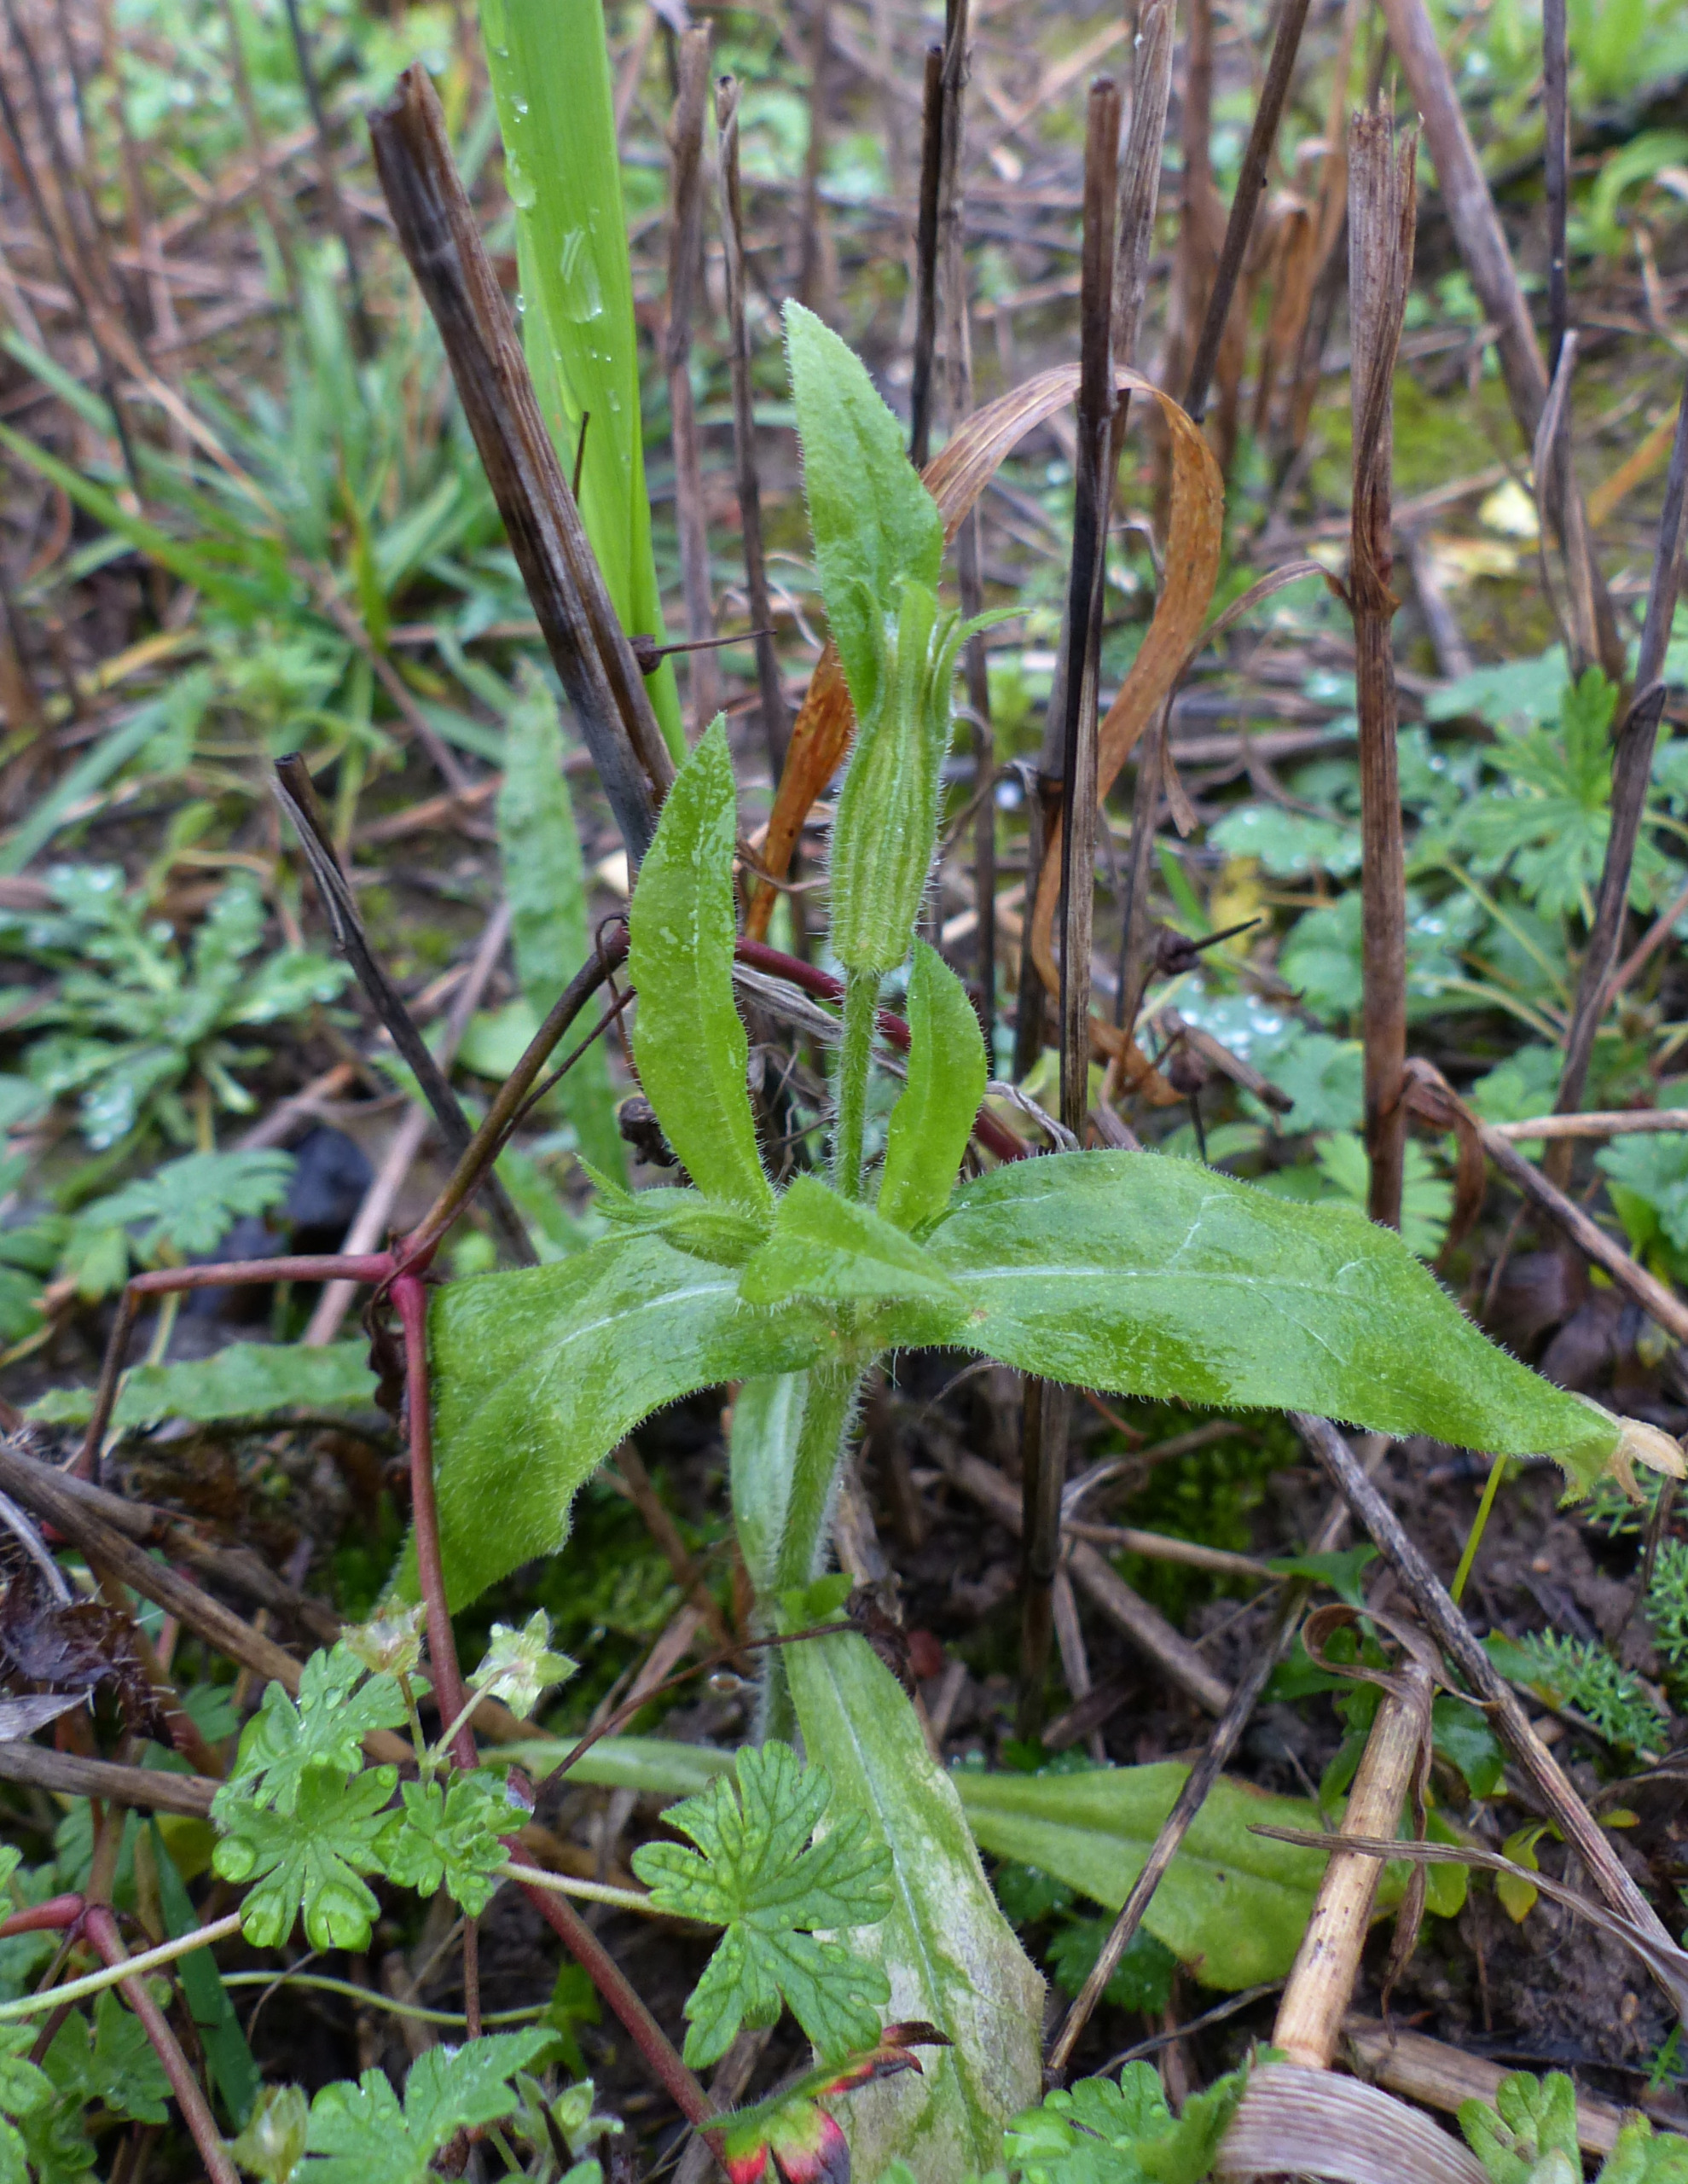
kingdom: Plantae
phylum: Tracheophyta
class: Magnoliopsida
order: Caryophyllales
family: Caryophyllaceae
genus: Silene
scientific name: Silene noctiflora
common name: Nat-limurt
